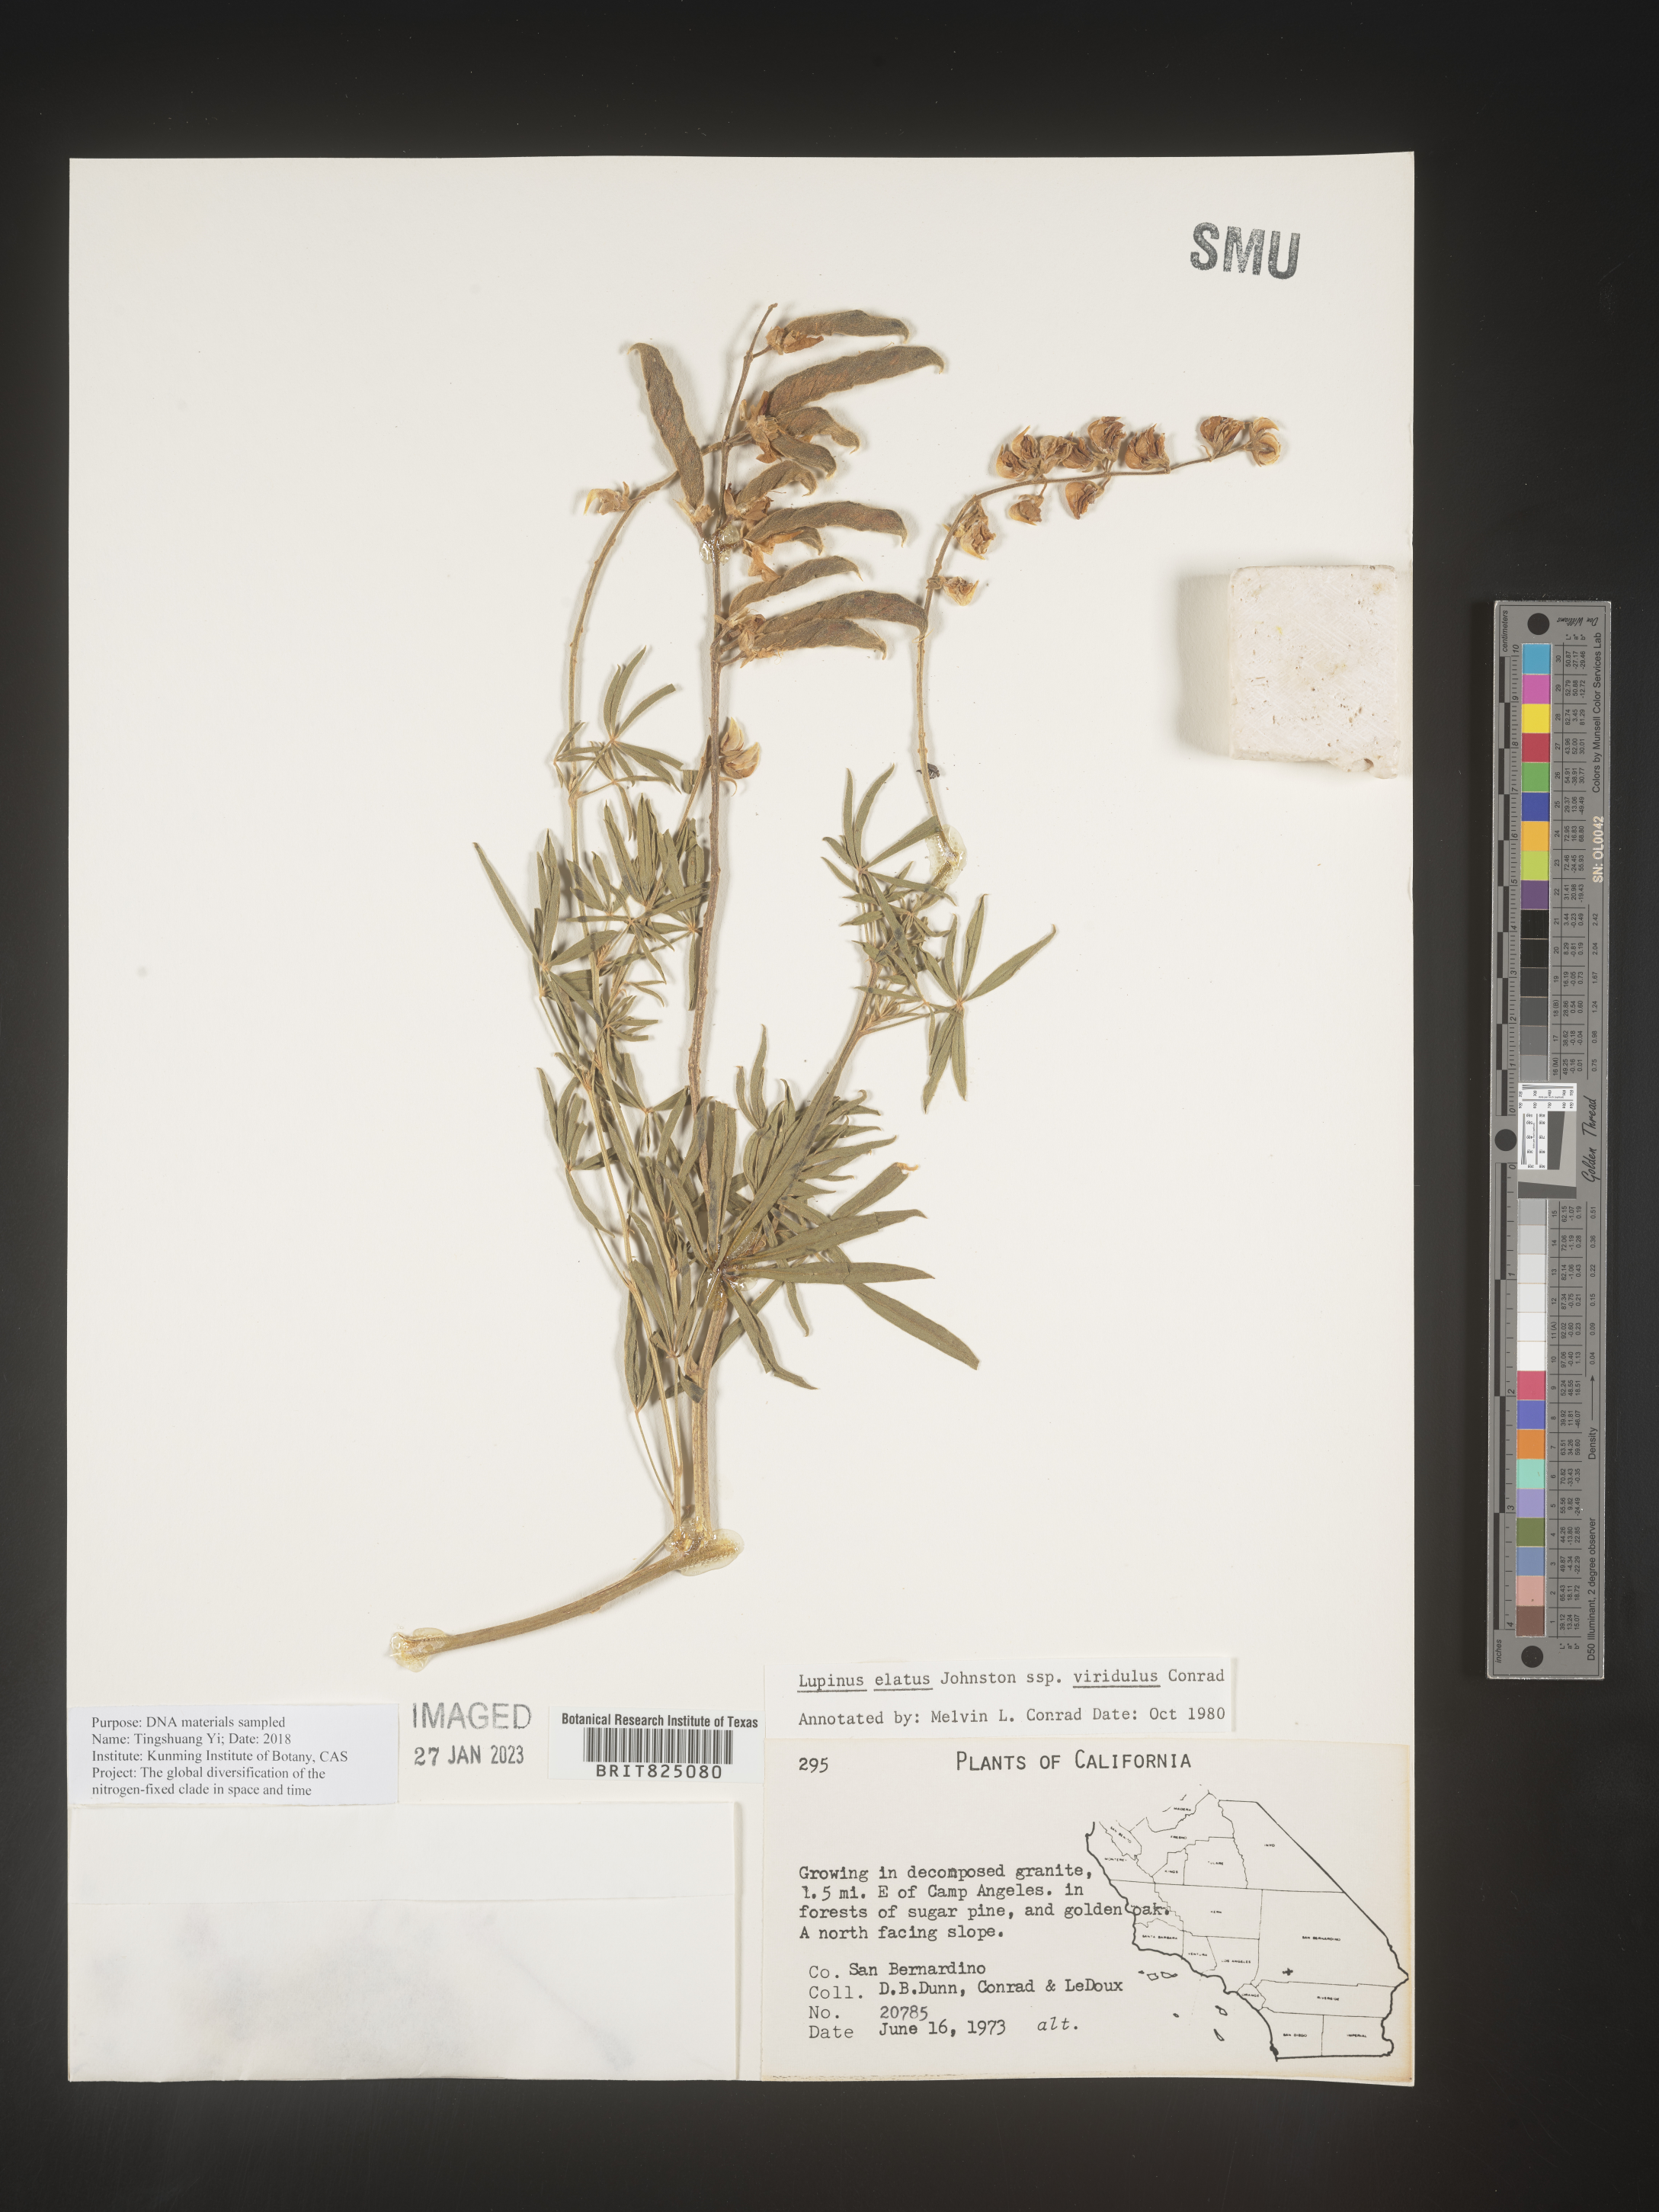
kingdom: Plantae
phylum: Tracheophyta
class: Magnoliopsida
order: Fabales
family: Fabaceae
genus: Lupinus
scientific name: Lupinus
